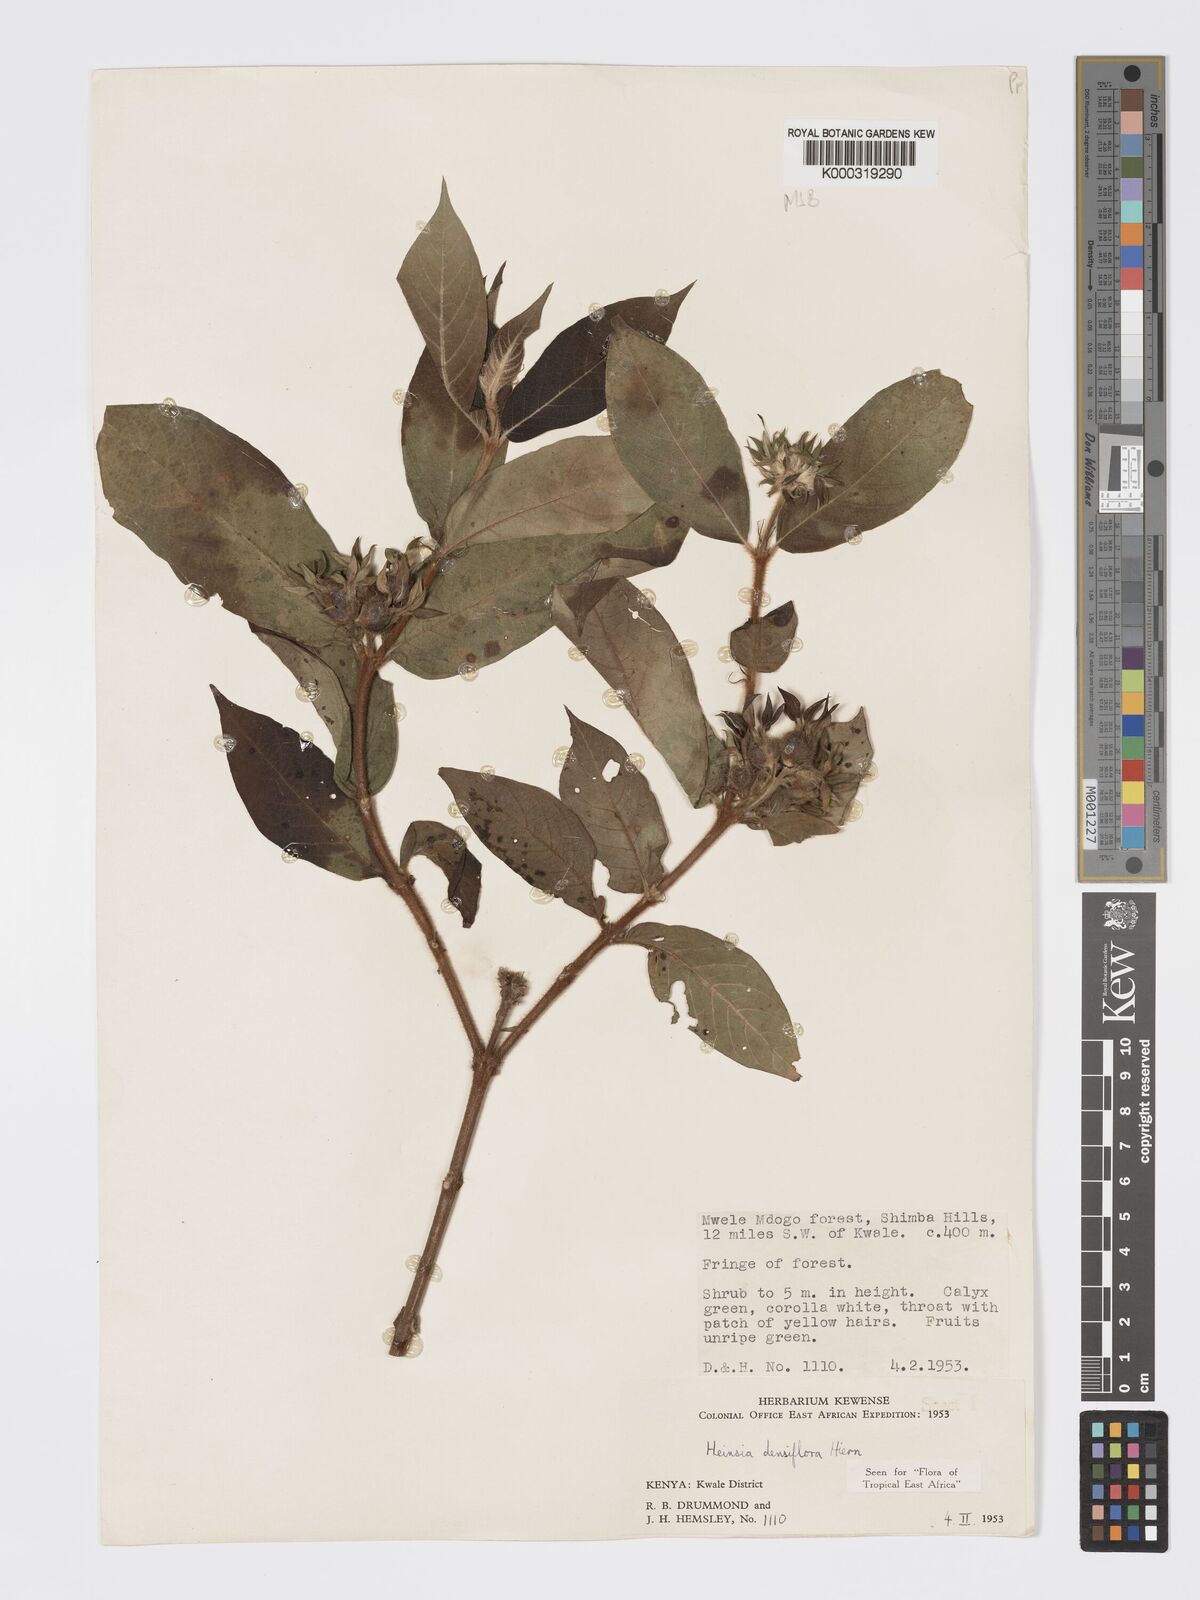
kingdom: Plantae
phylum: Tracheophyta
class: Magnoliopsida
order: Gentianales
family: Rubiaceae
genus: Heinsia
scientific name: Heinsia zanzibarica
